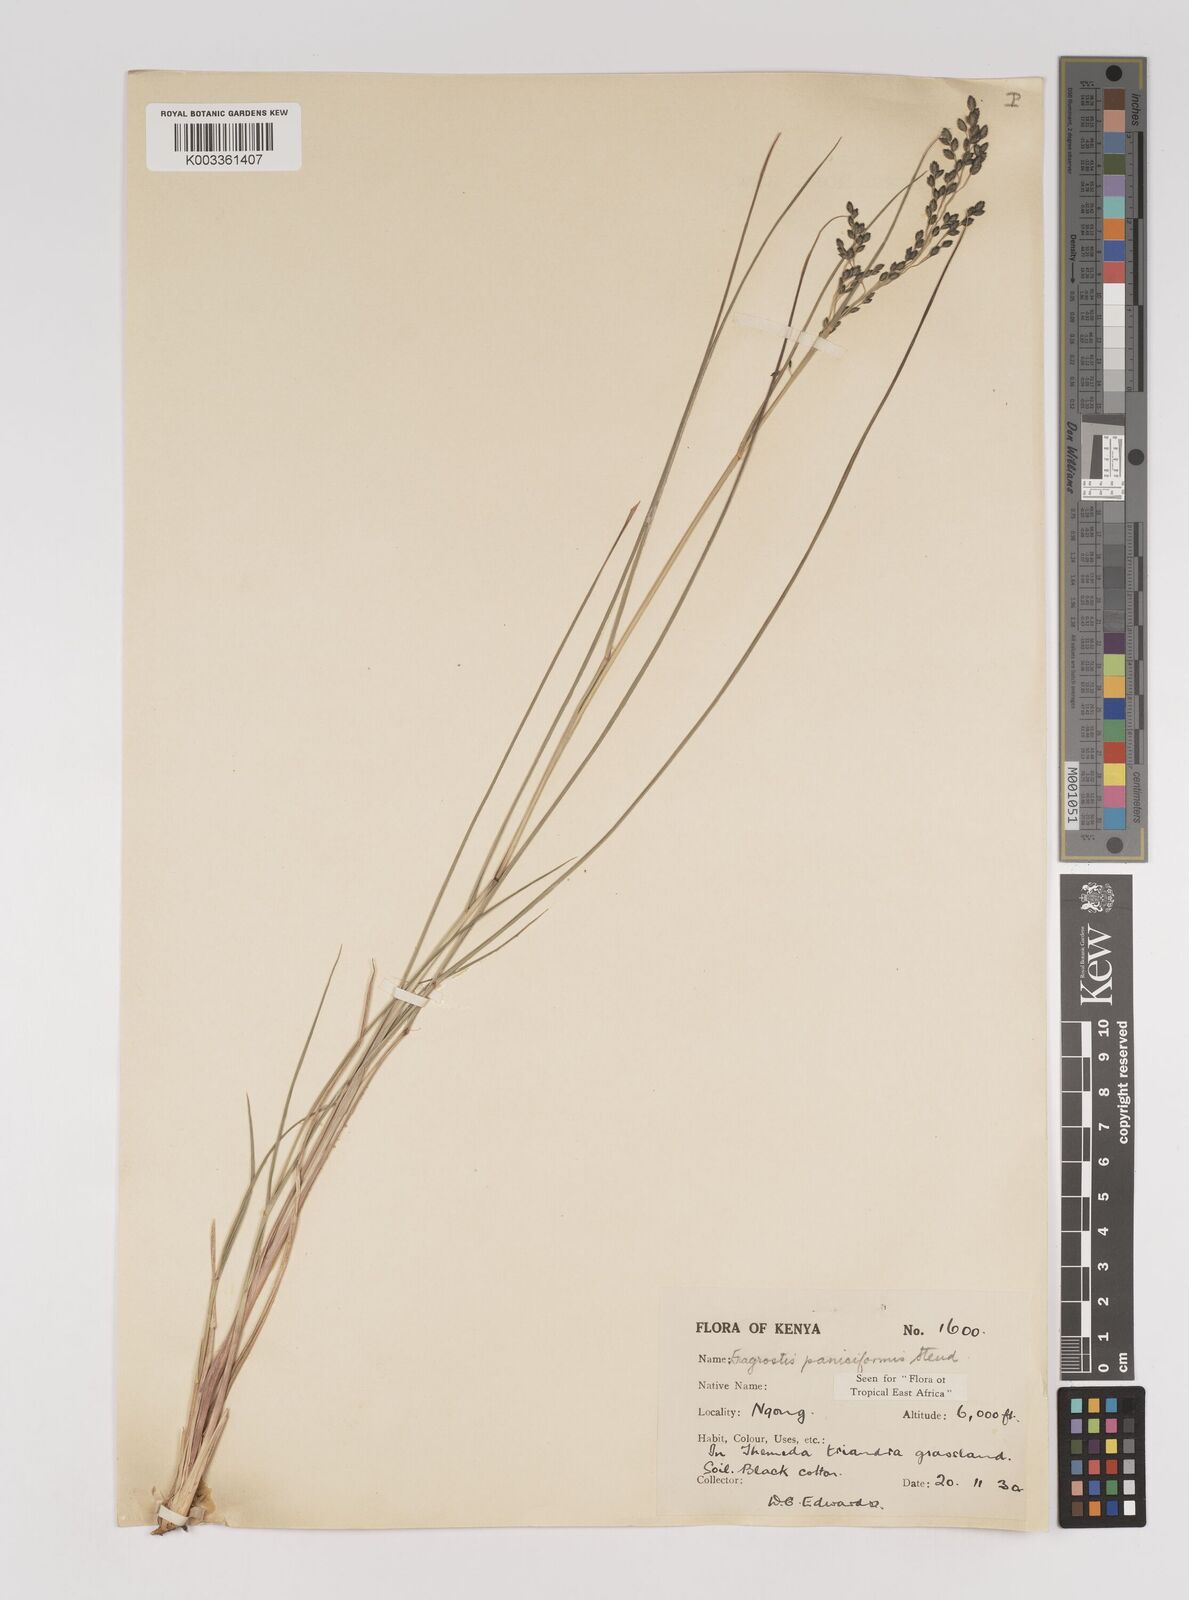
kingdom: Plantae
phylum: Tracheophyta
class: Liliopsida
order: Poales
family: Poaceae
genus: Eragrostis
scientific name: Eragrostis paniciformis
